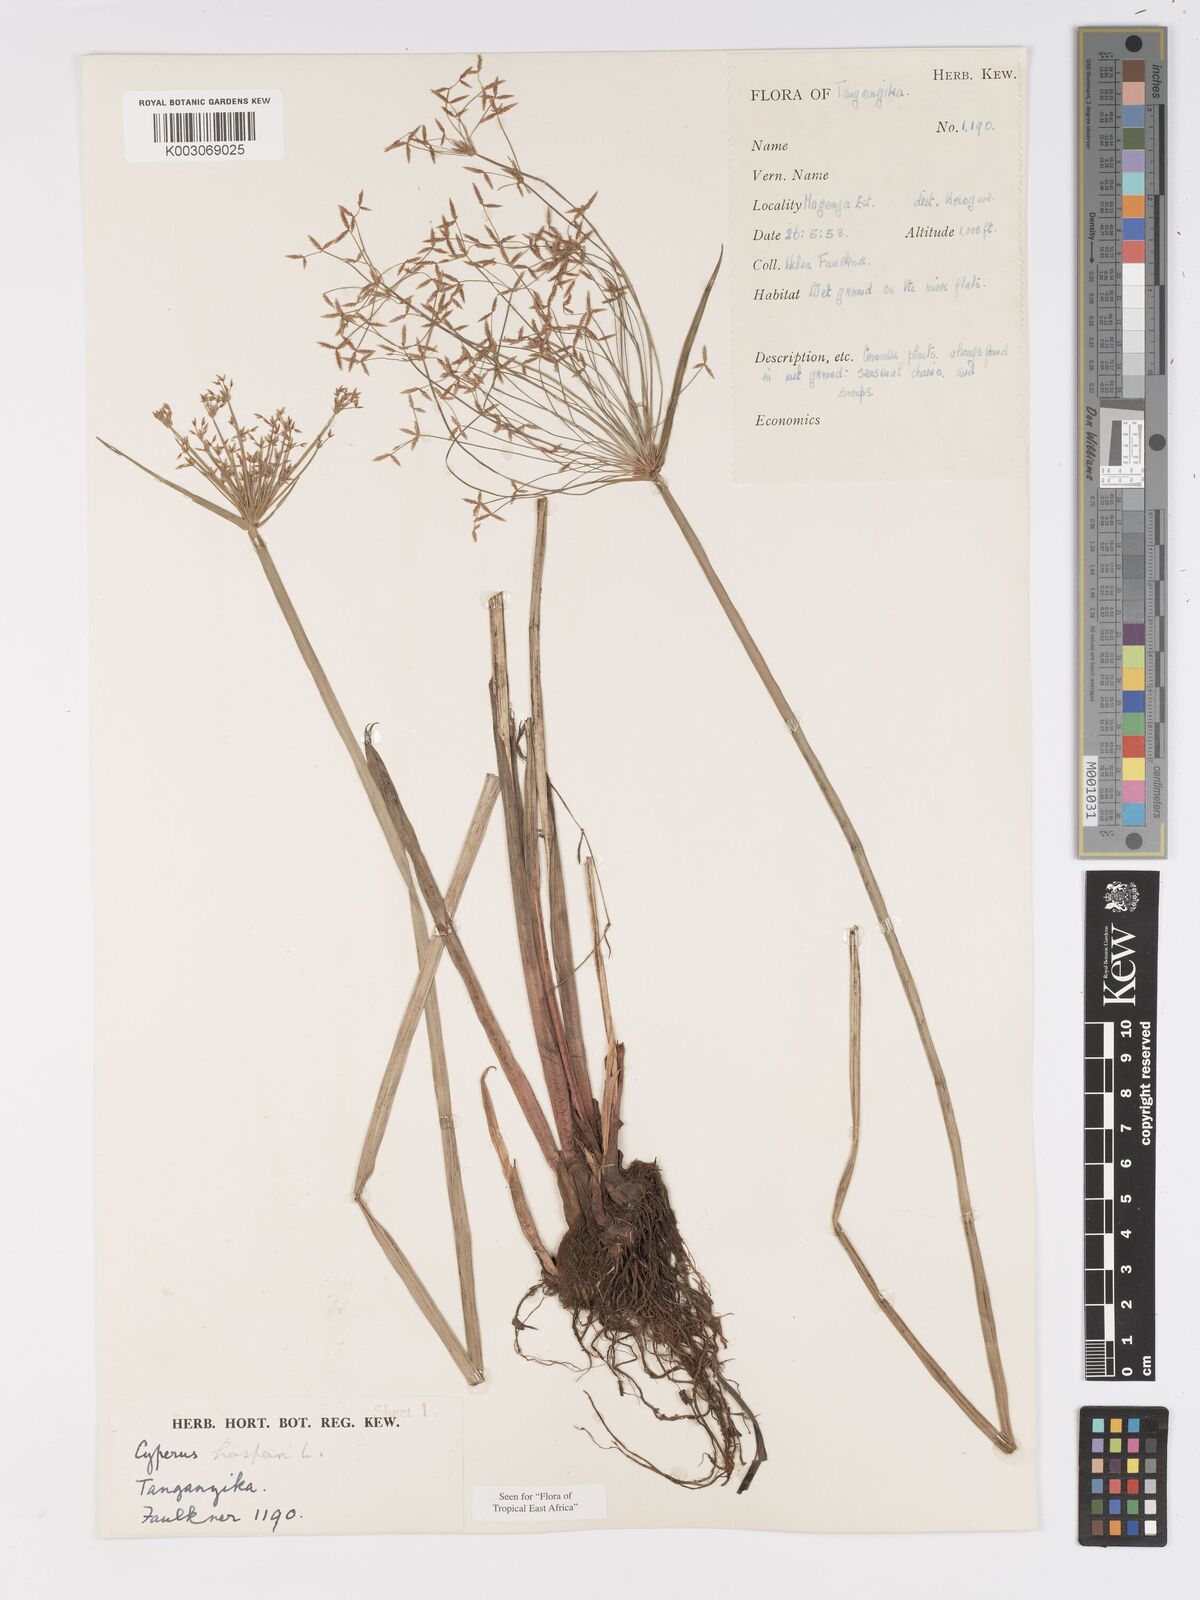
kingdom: Plantae
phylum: Tracheophyta
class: Liliopsida
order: Poales
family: Cyperaceae
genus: Cyperus
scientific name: Cyperus haspan
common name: Haspan flatsedge
